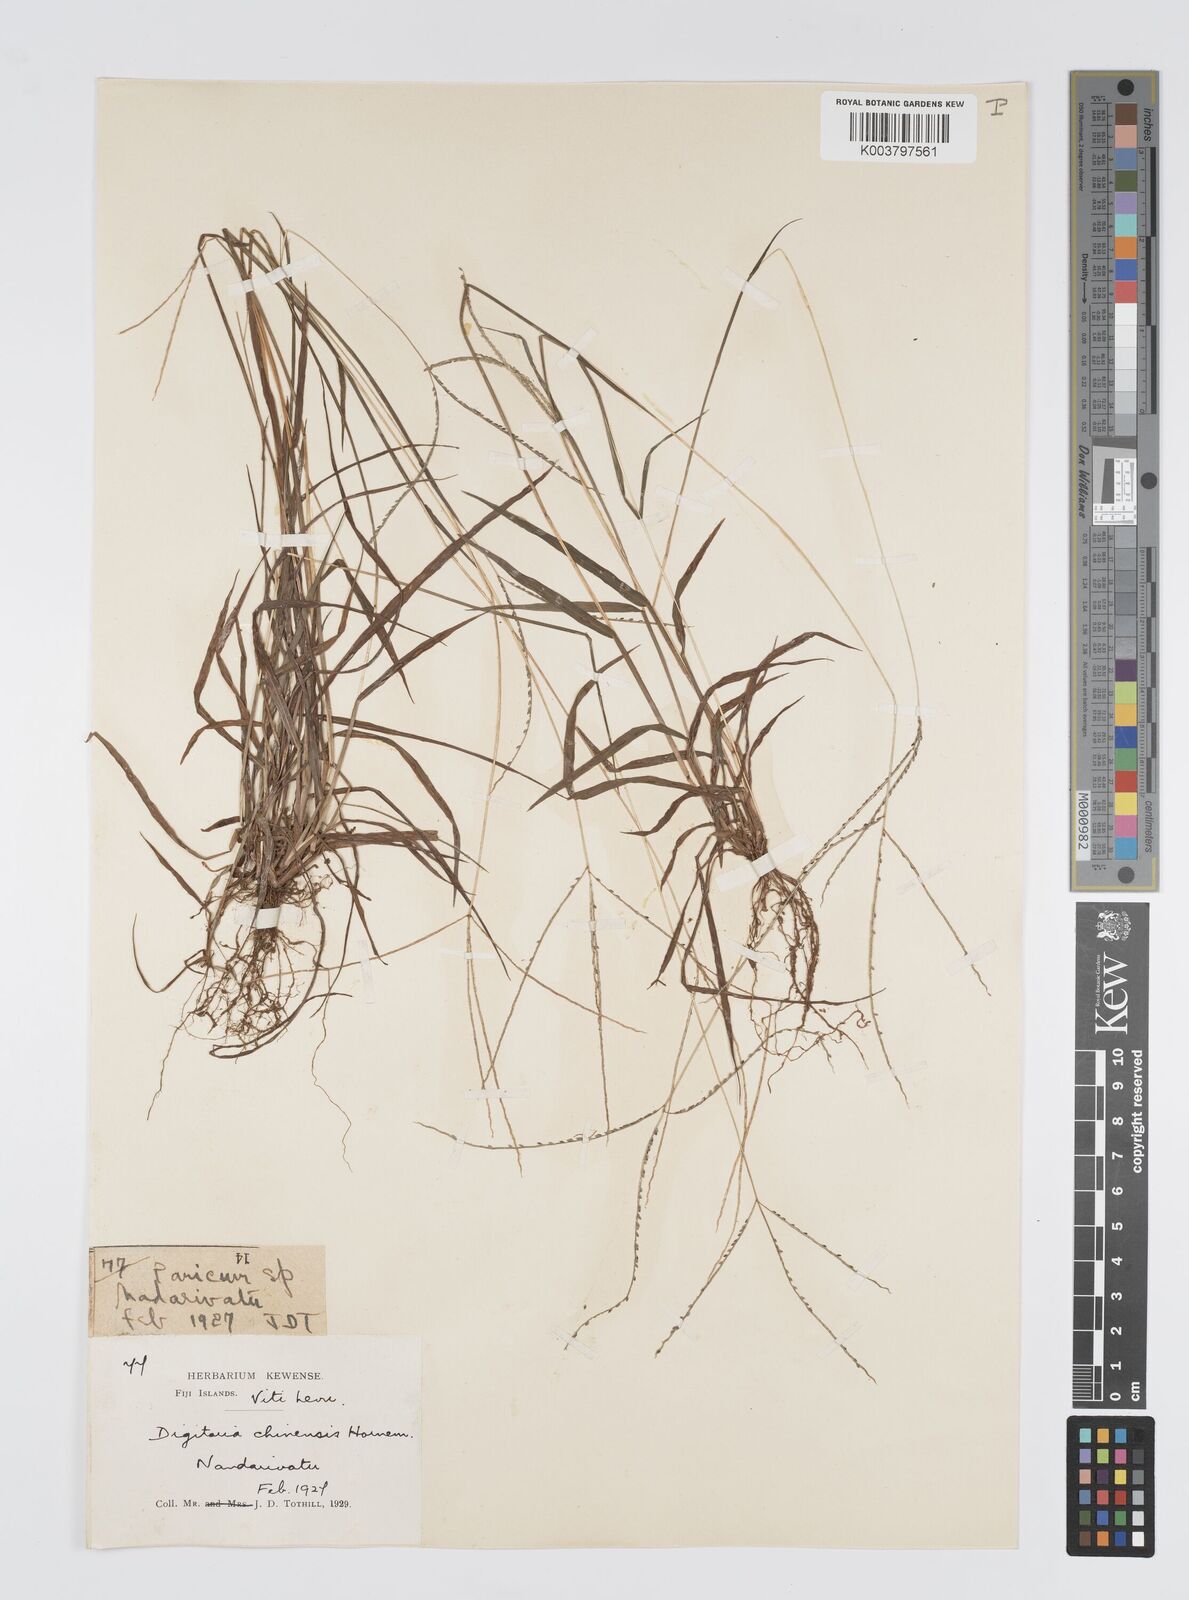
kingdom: Plantae
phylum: Tracheophyta
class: Liliopsida
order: Poales
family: Poaceae
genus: Digitaria
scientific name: Digitaria violascens
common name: Violet crabgrass
